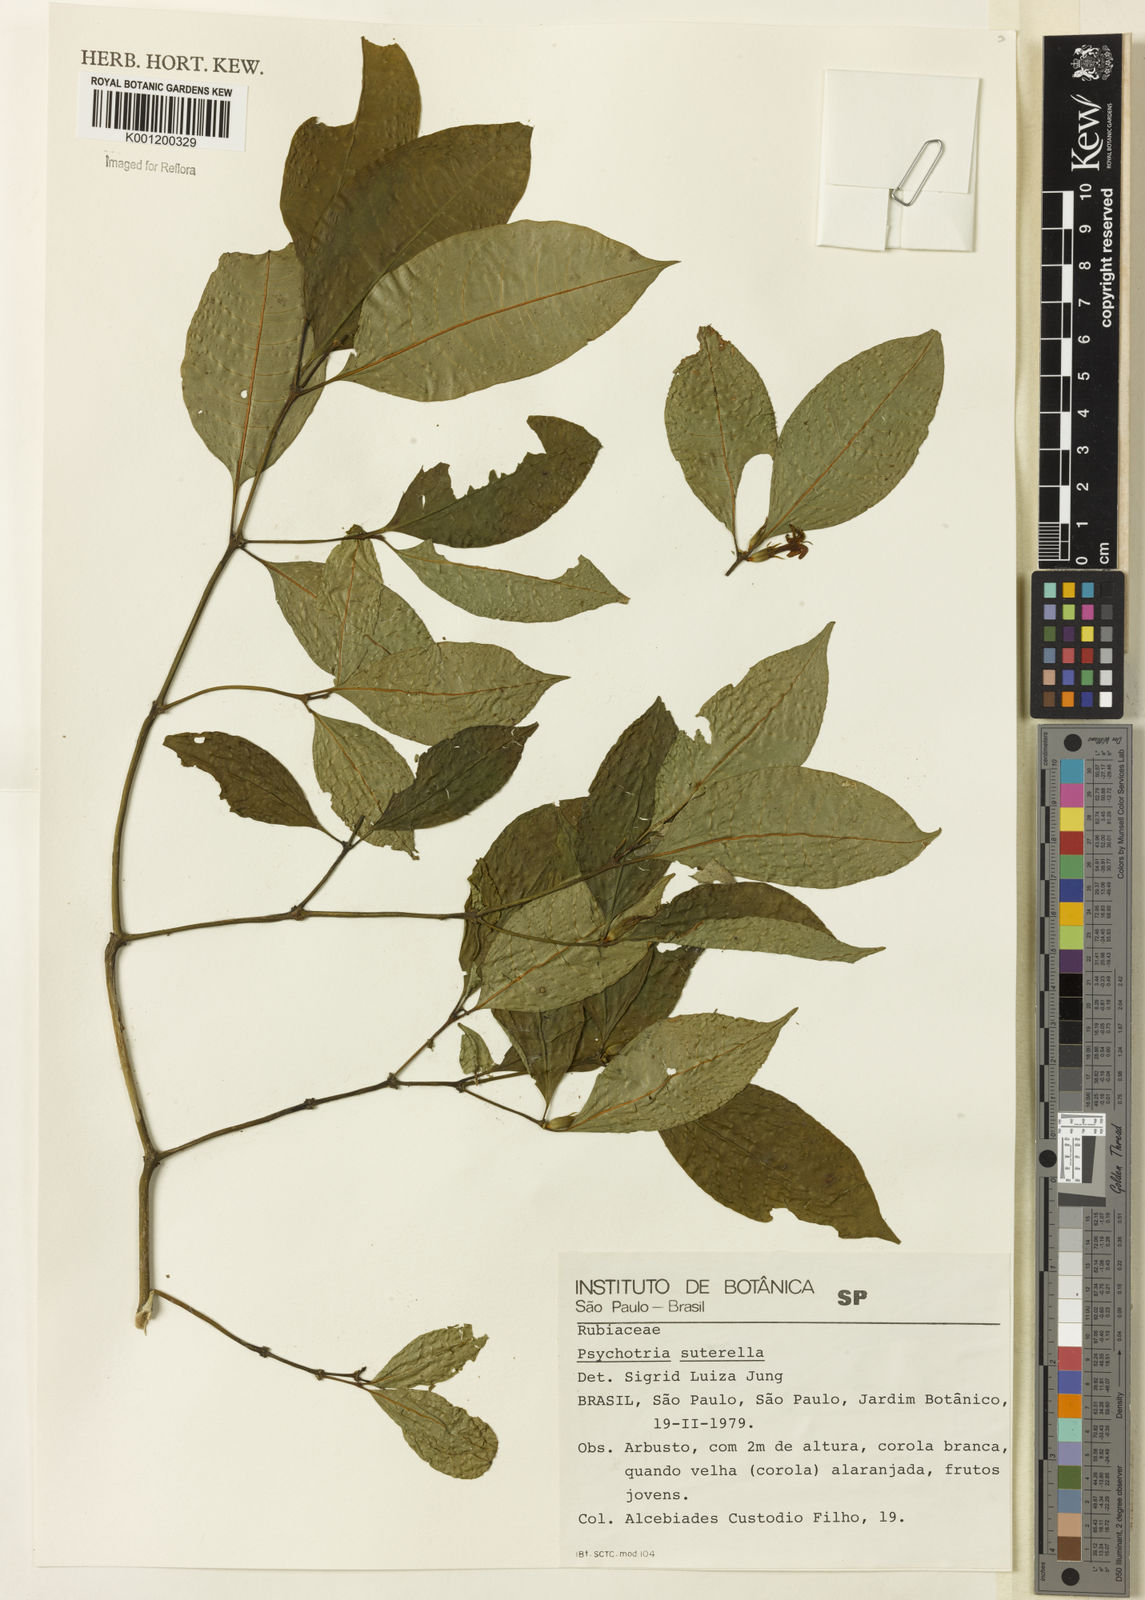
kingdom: Plantae
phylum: Tracheophyta
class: Magnoliopsida
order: Gentianales
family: Rubiaceae
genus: Psychotria
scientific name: Psychotria
